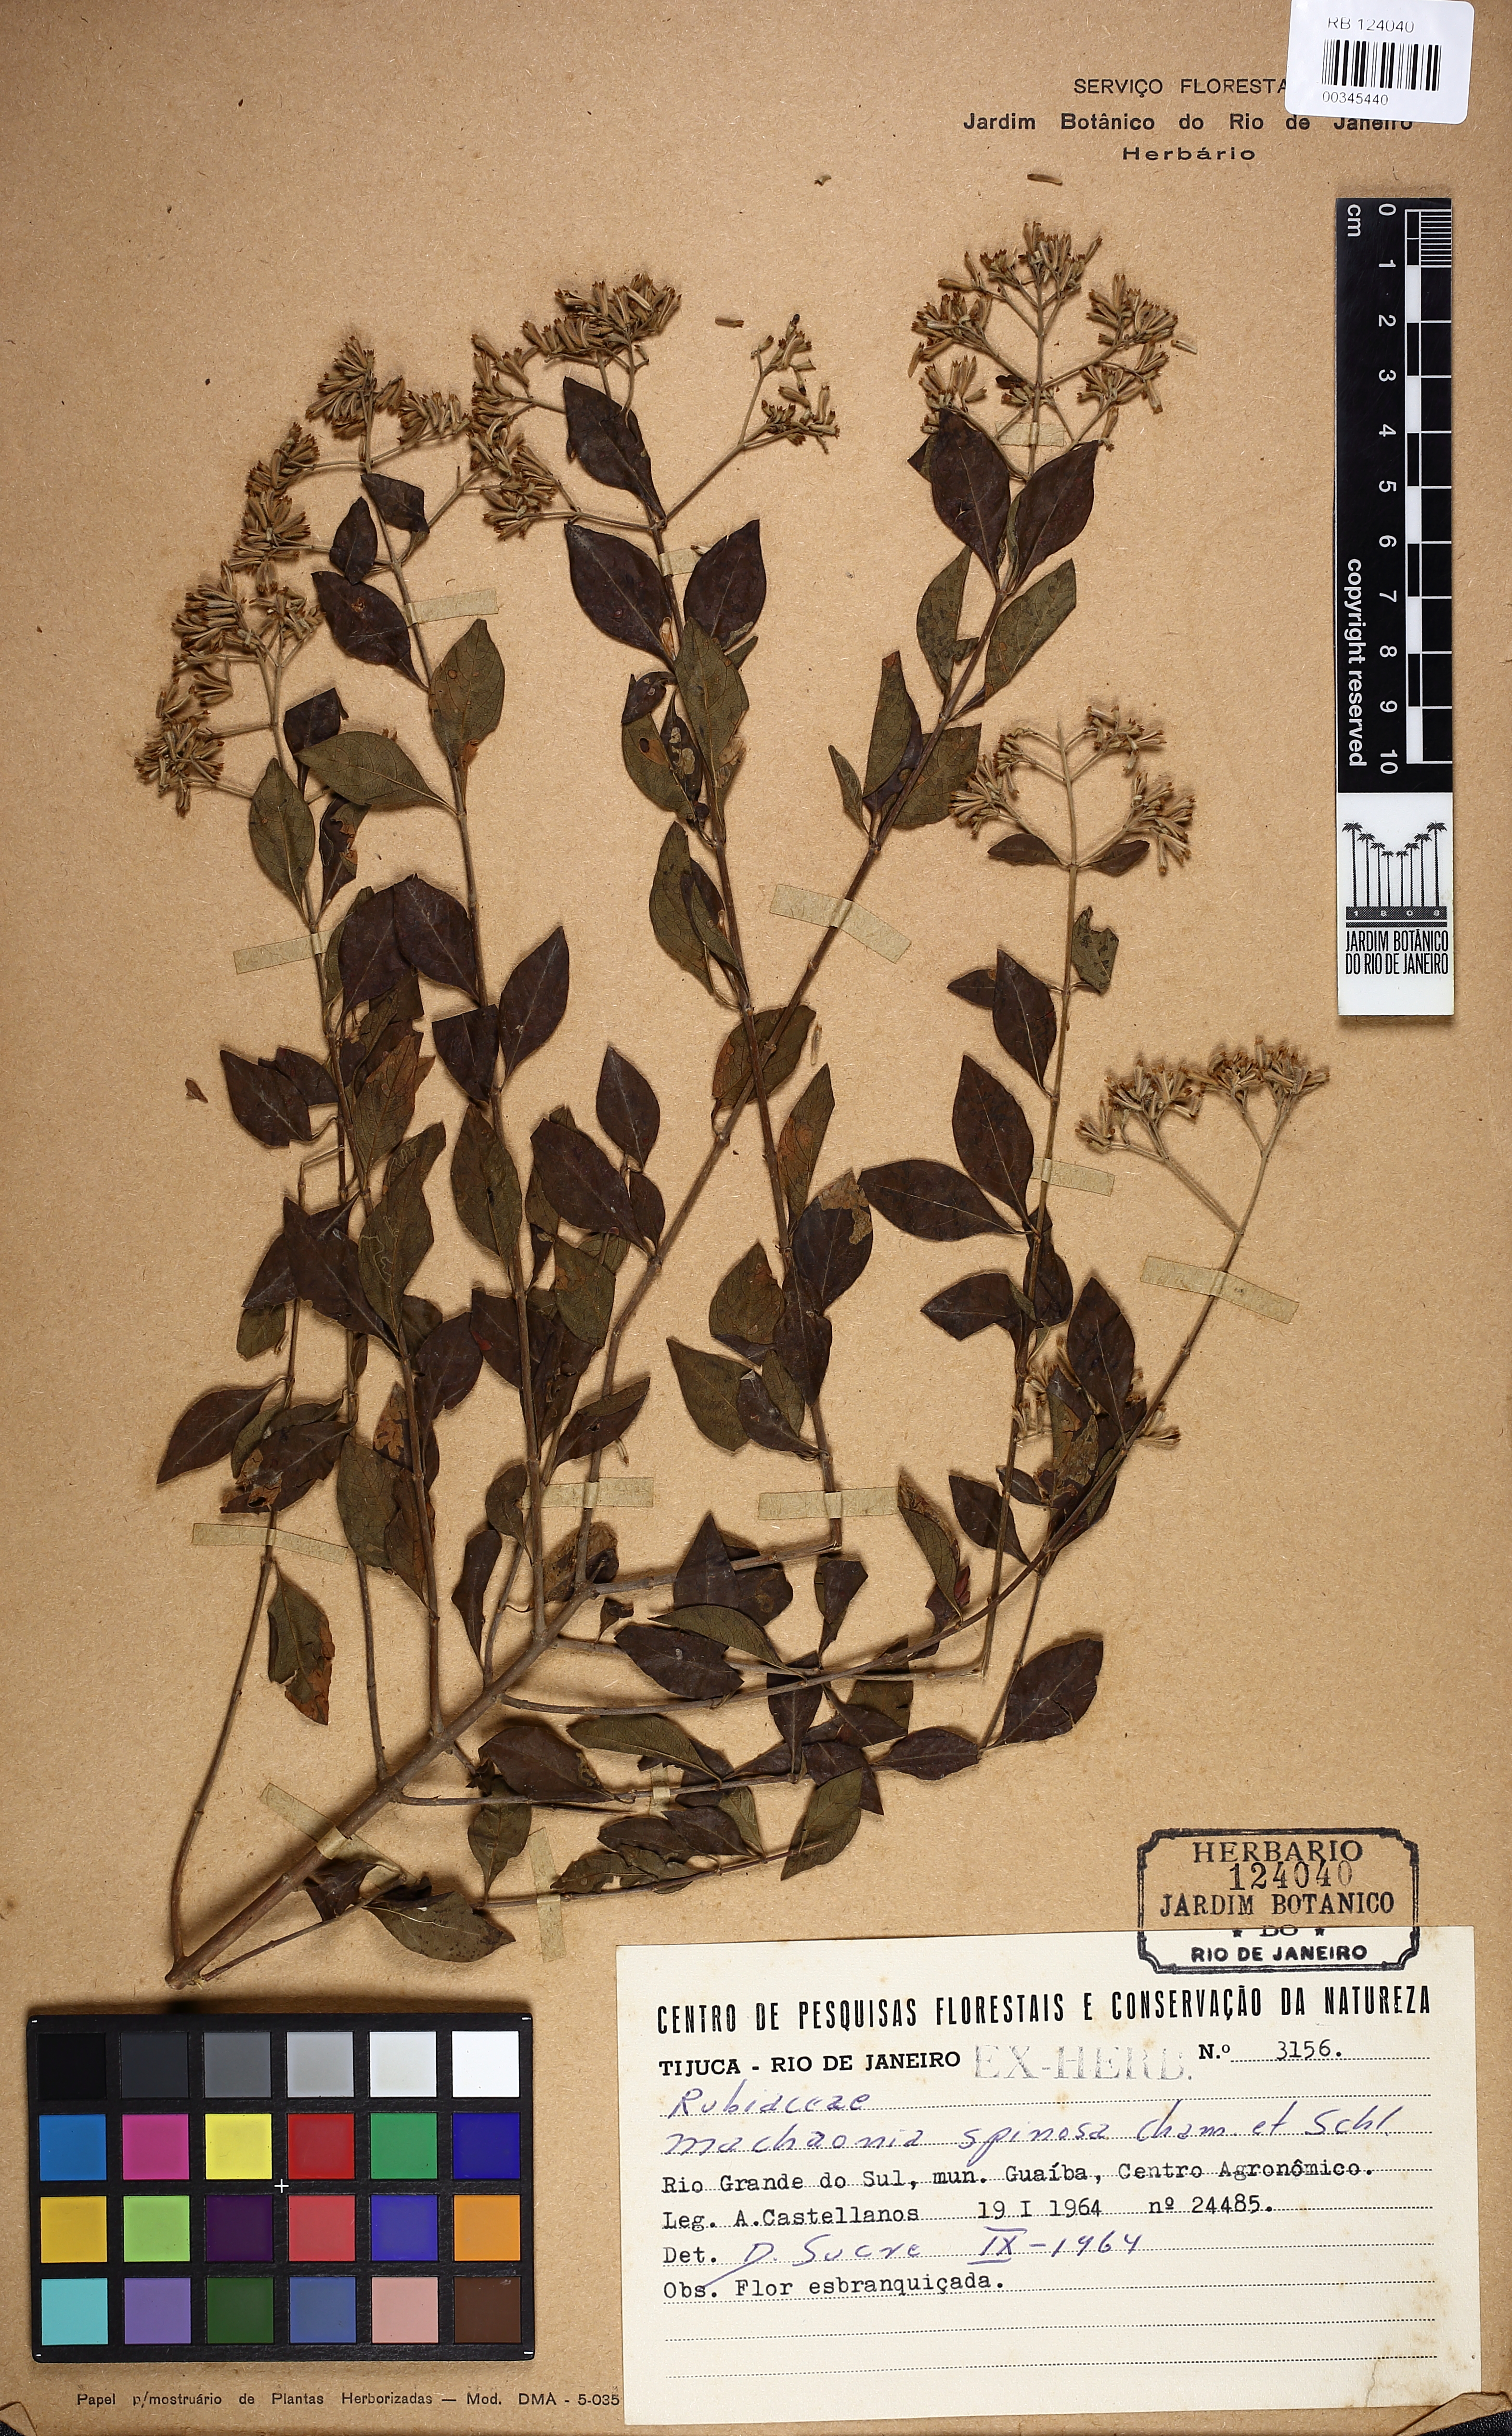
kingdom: Plantae
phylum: Tracheophyta
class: Magnoliopsida
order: Gentianales
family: Rubiaceae
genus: Machaonia
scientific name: Machaonia brasiliensis
